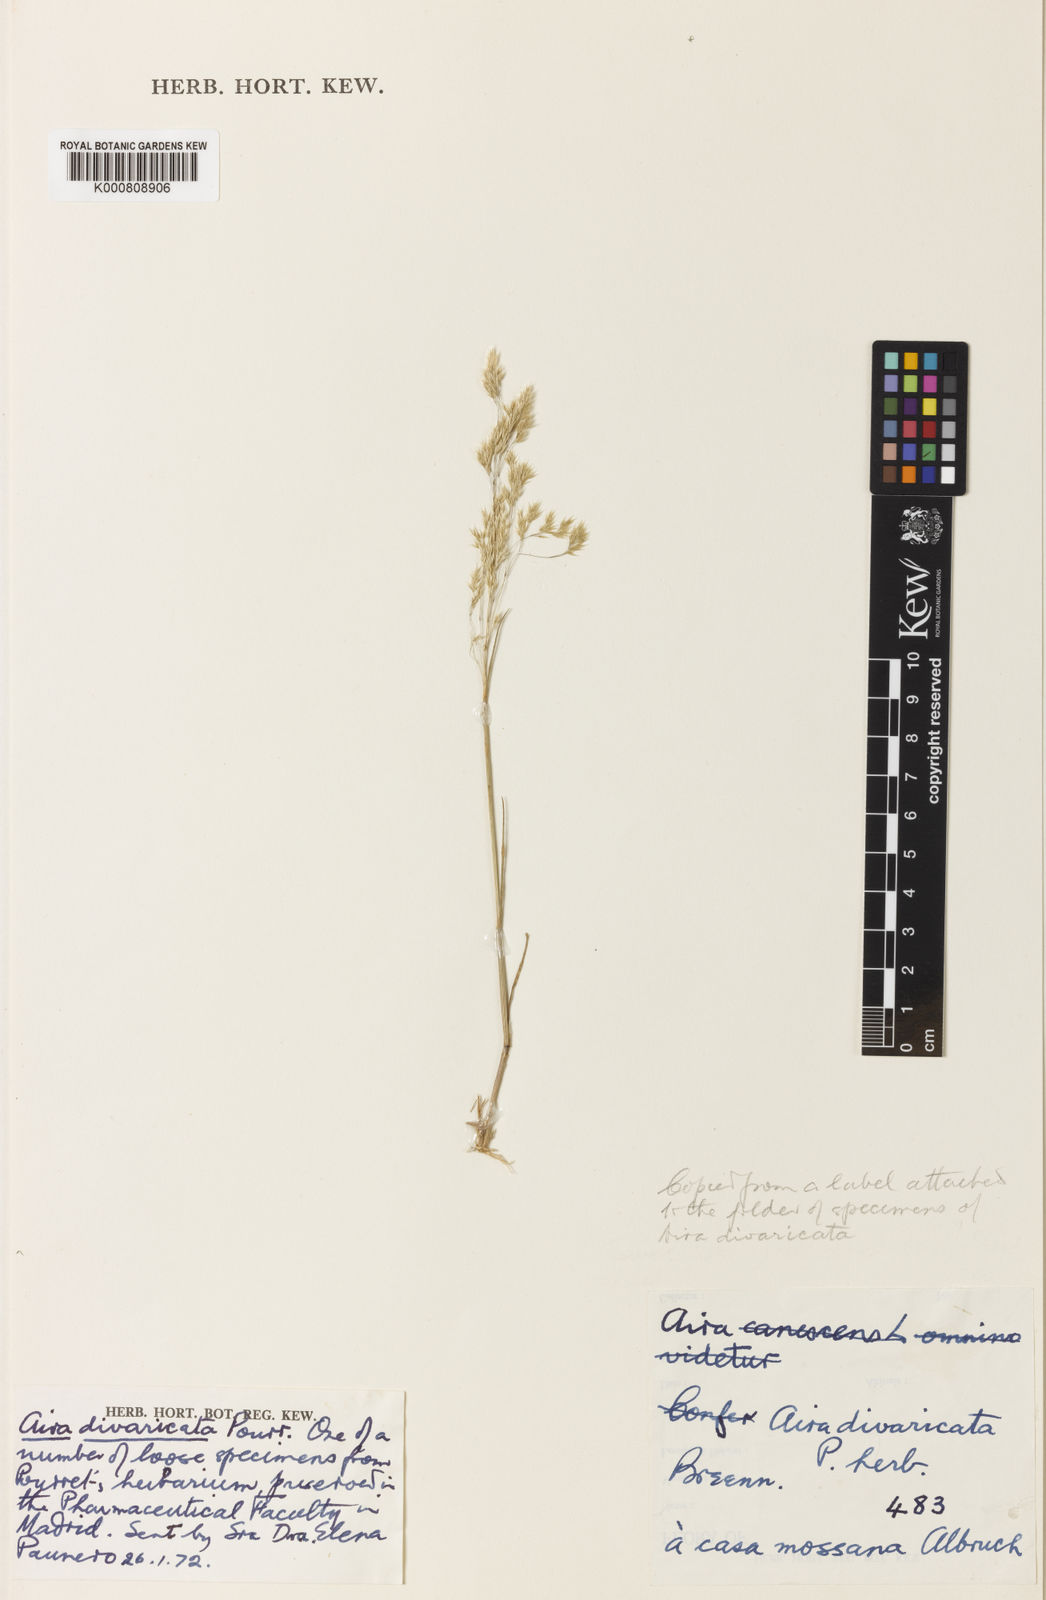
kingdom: Plantae
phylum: Tracheophyta
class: Liliopsida
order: Poales
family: Poaceae
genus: Corynephorus
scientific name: Corynephorus divaricatus
